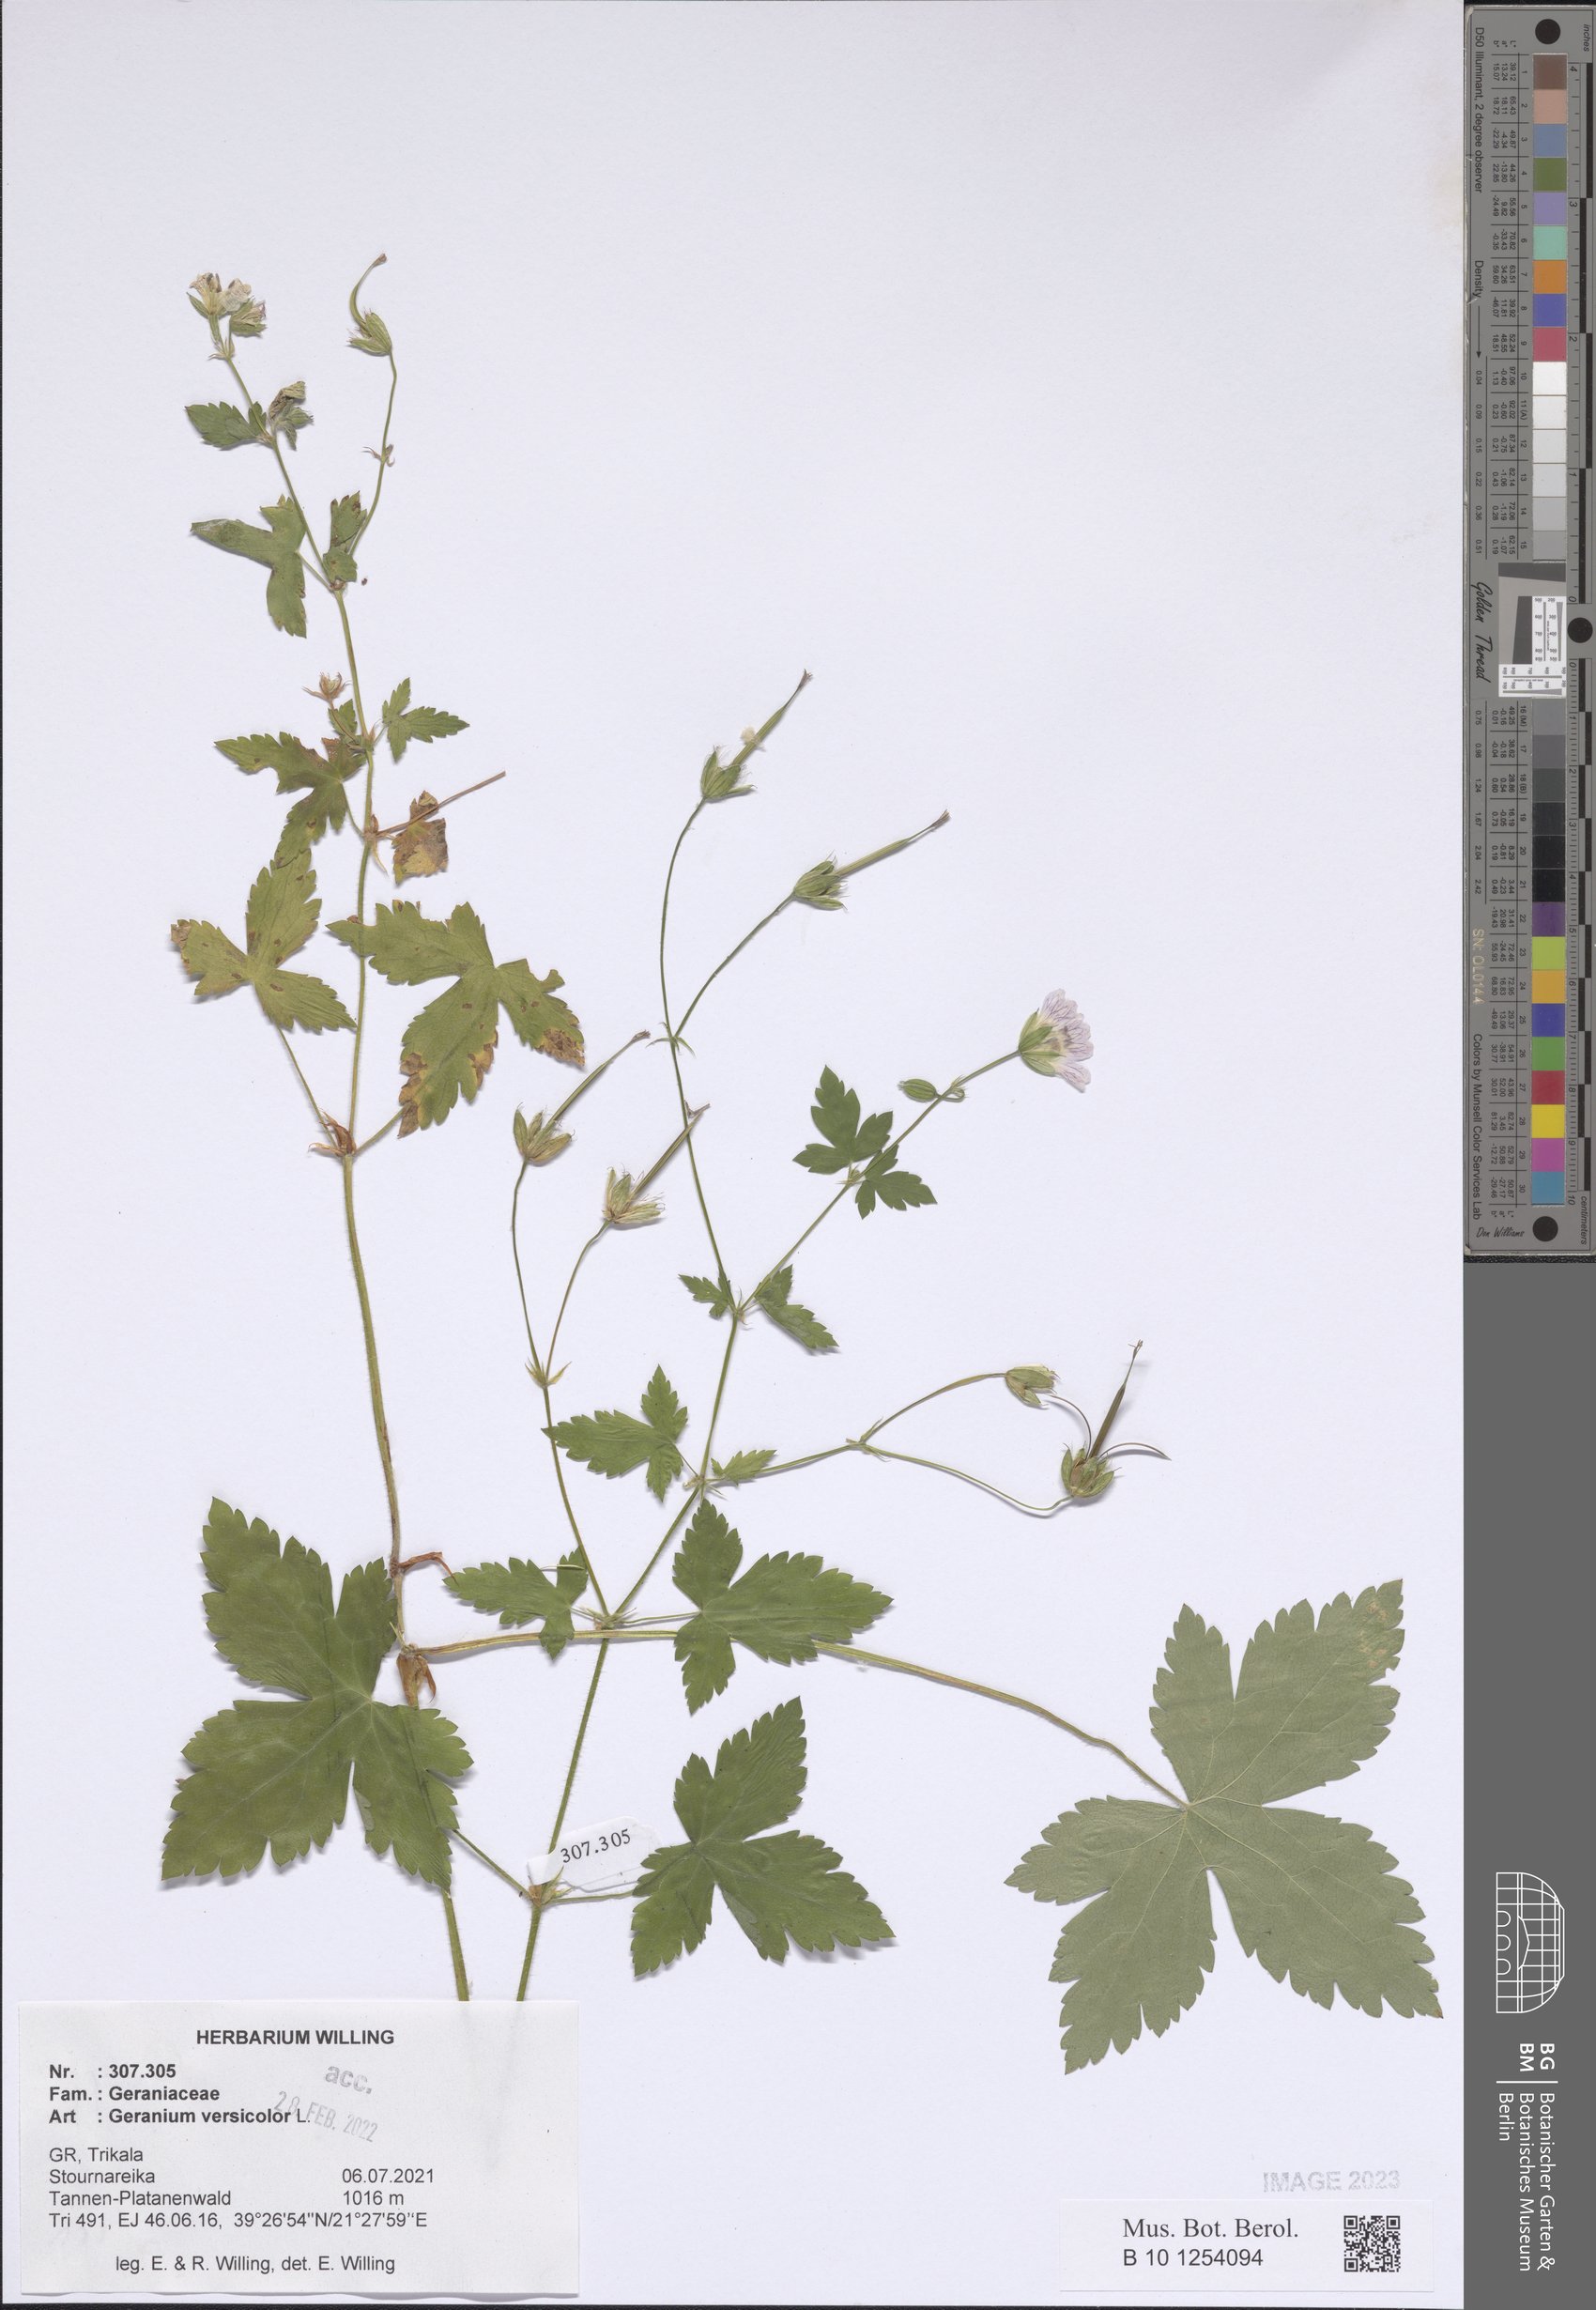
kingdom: Plantae
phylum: Tracheophyta
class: Magnoliopsida
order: Geraniales
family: Geraniaceae
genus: Geranium
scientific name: Geranium versicolor
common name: Pencilled crane's-bill
